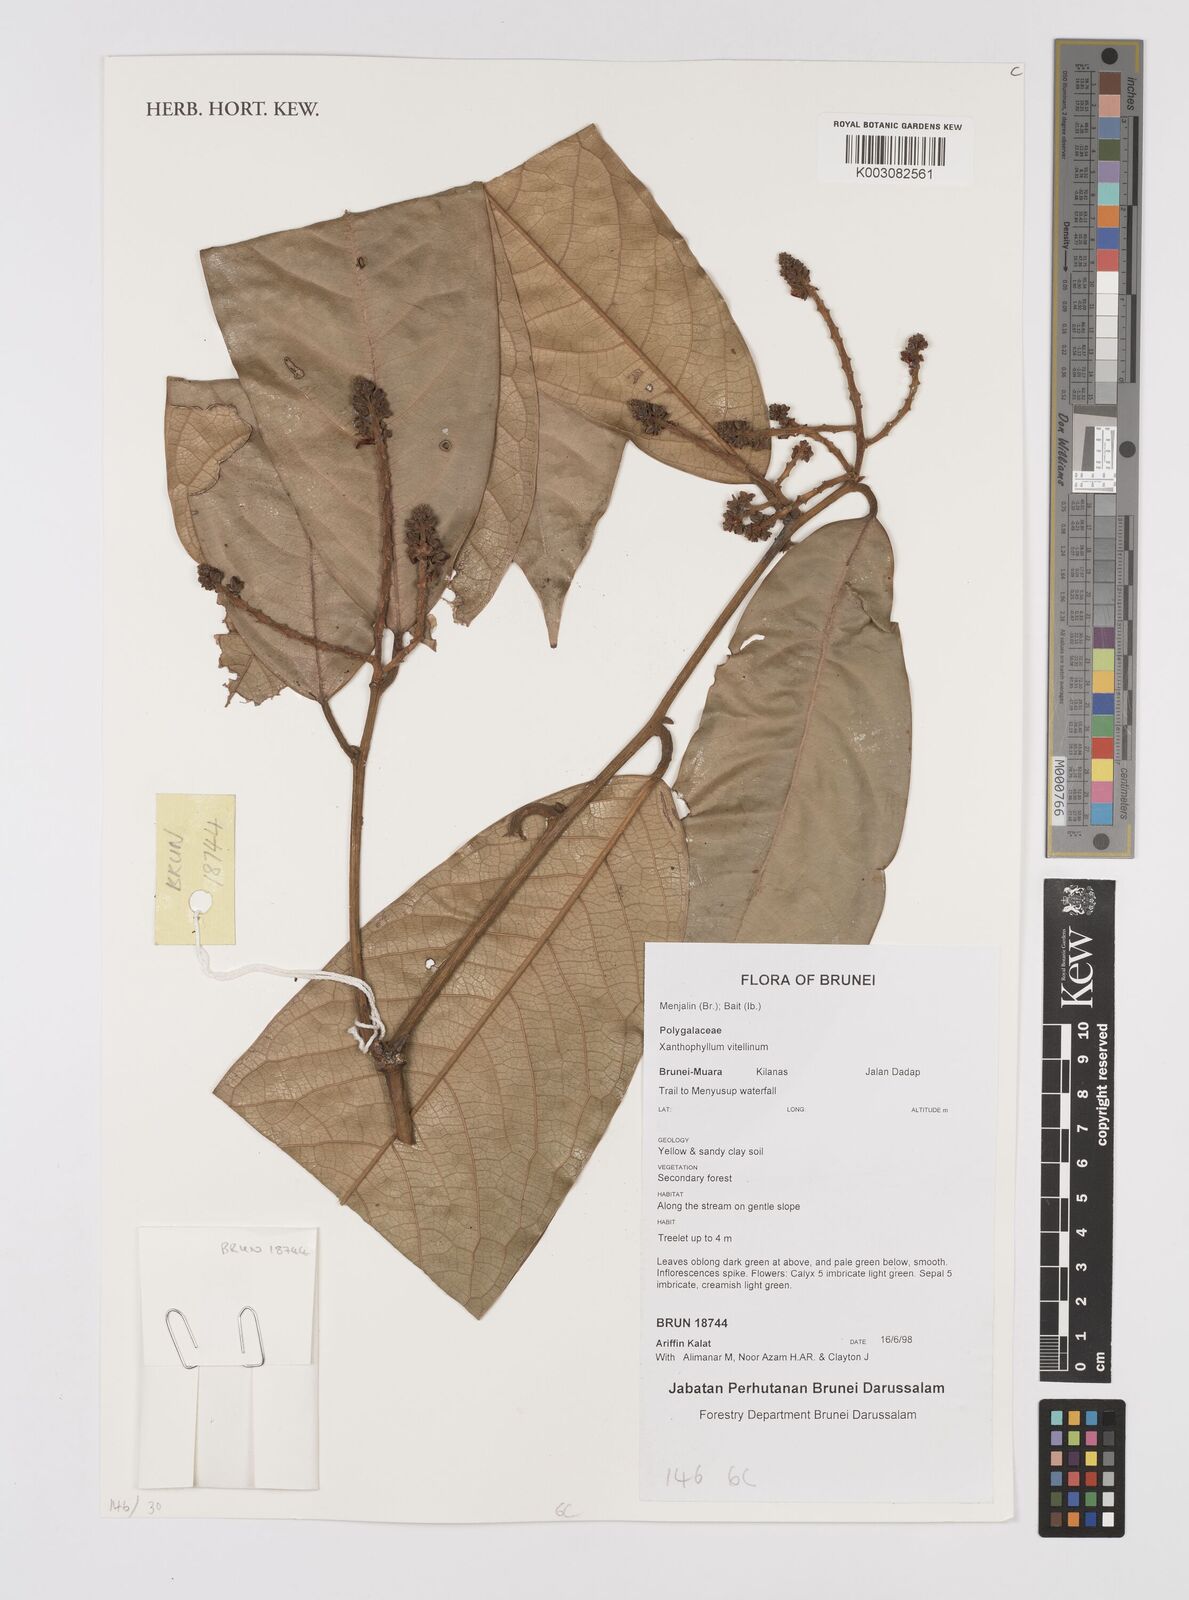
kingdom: Plantae
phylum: Tracheophyta
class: Magnoliopsida
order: Fabales
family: Polygalaceae
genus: Xanthophyllum
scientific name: Xanthophyllum vitellinum
